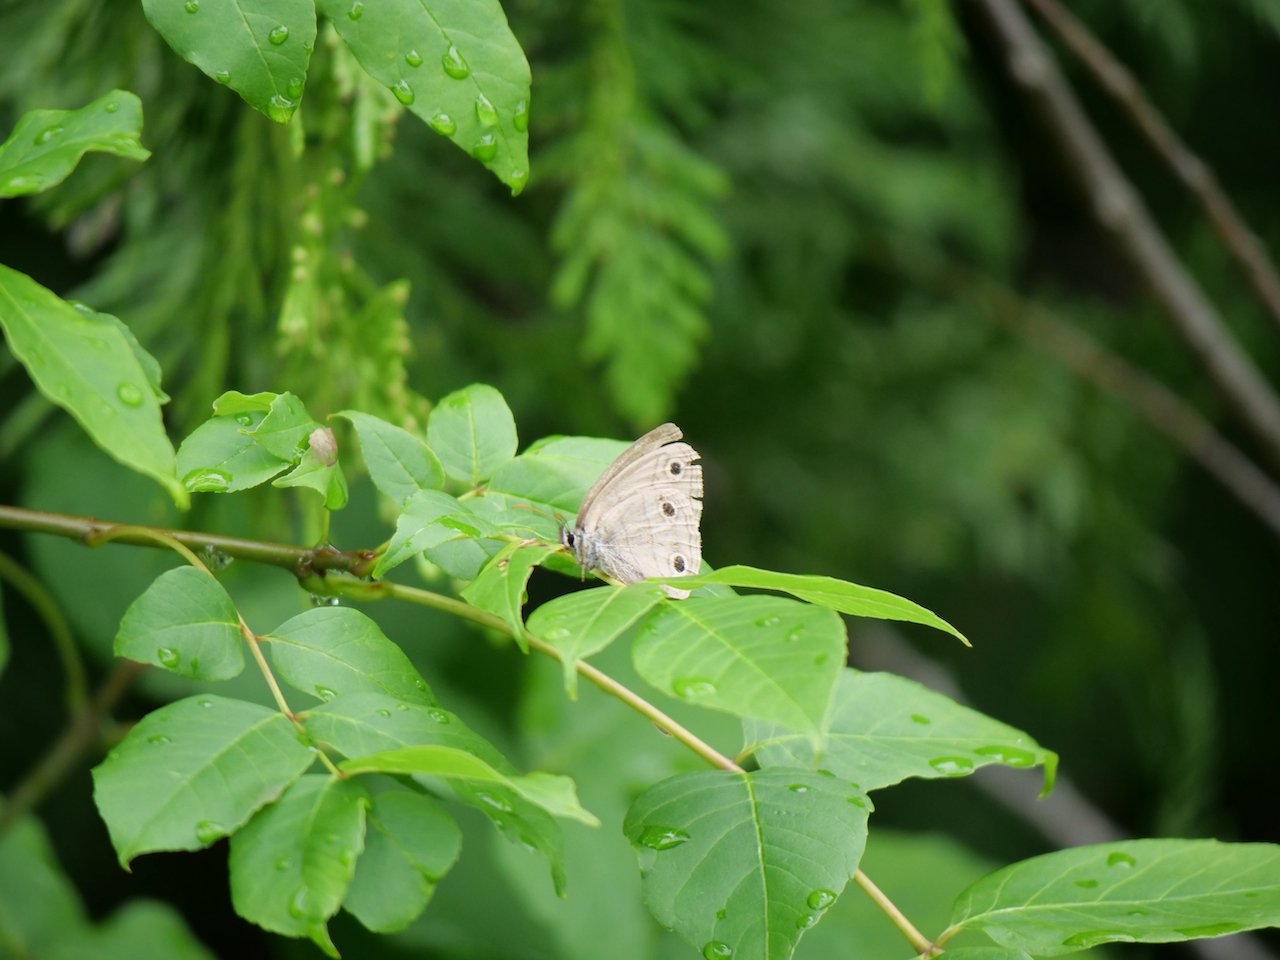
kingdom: Animalia
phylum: Arthropoda
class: Insecta
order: Lepidoptera
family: Nymphalidae
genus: Euptychia
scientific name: Euptychia cymela
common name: Little Wood Satyr
